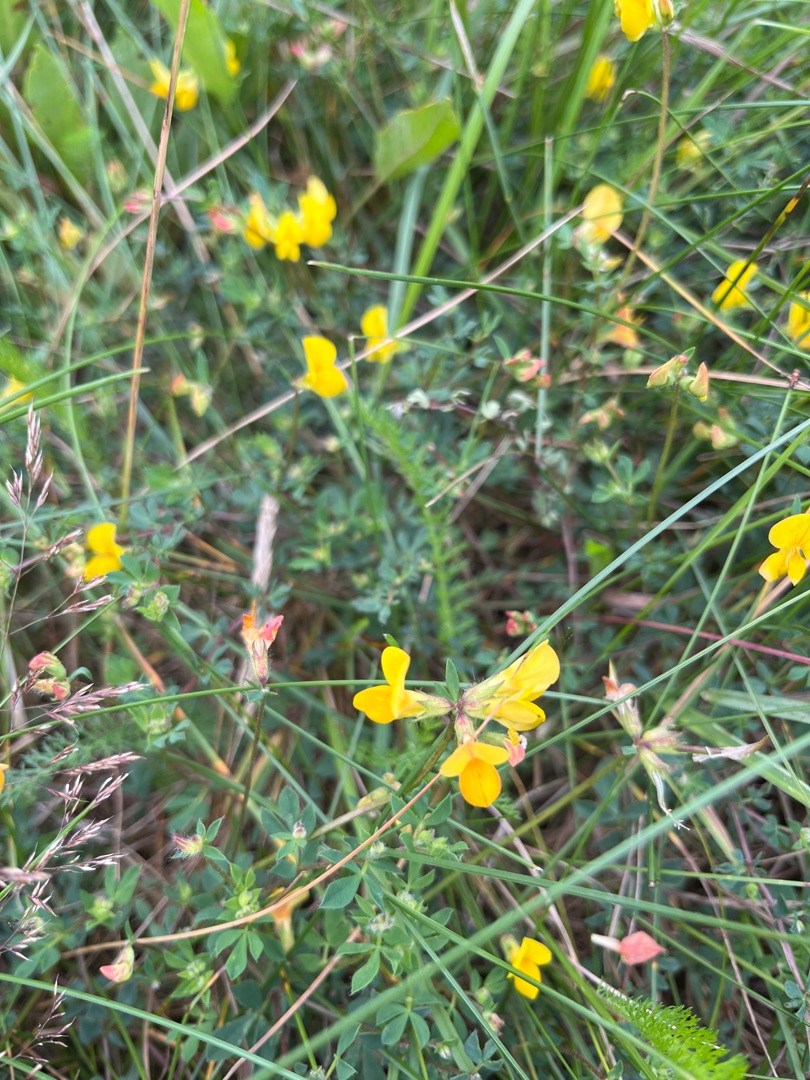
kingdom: Plantae
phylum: Tracheophyta
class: Magnoliopsida
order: Fabales
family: Fabaceae
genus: Lotus
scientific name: Lotus corniculatus
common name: Almindelig kællingetand
